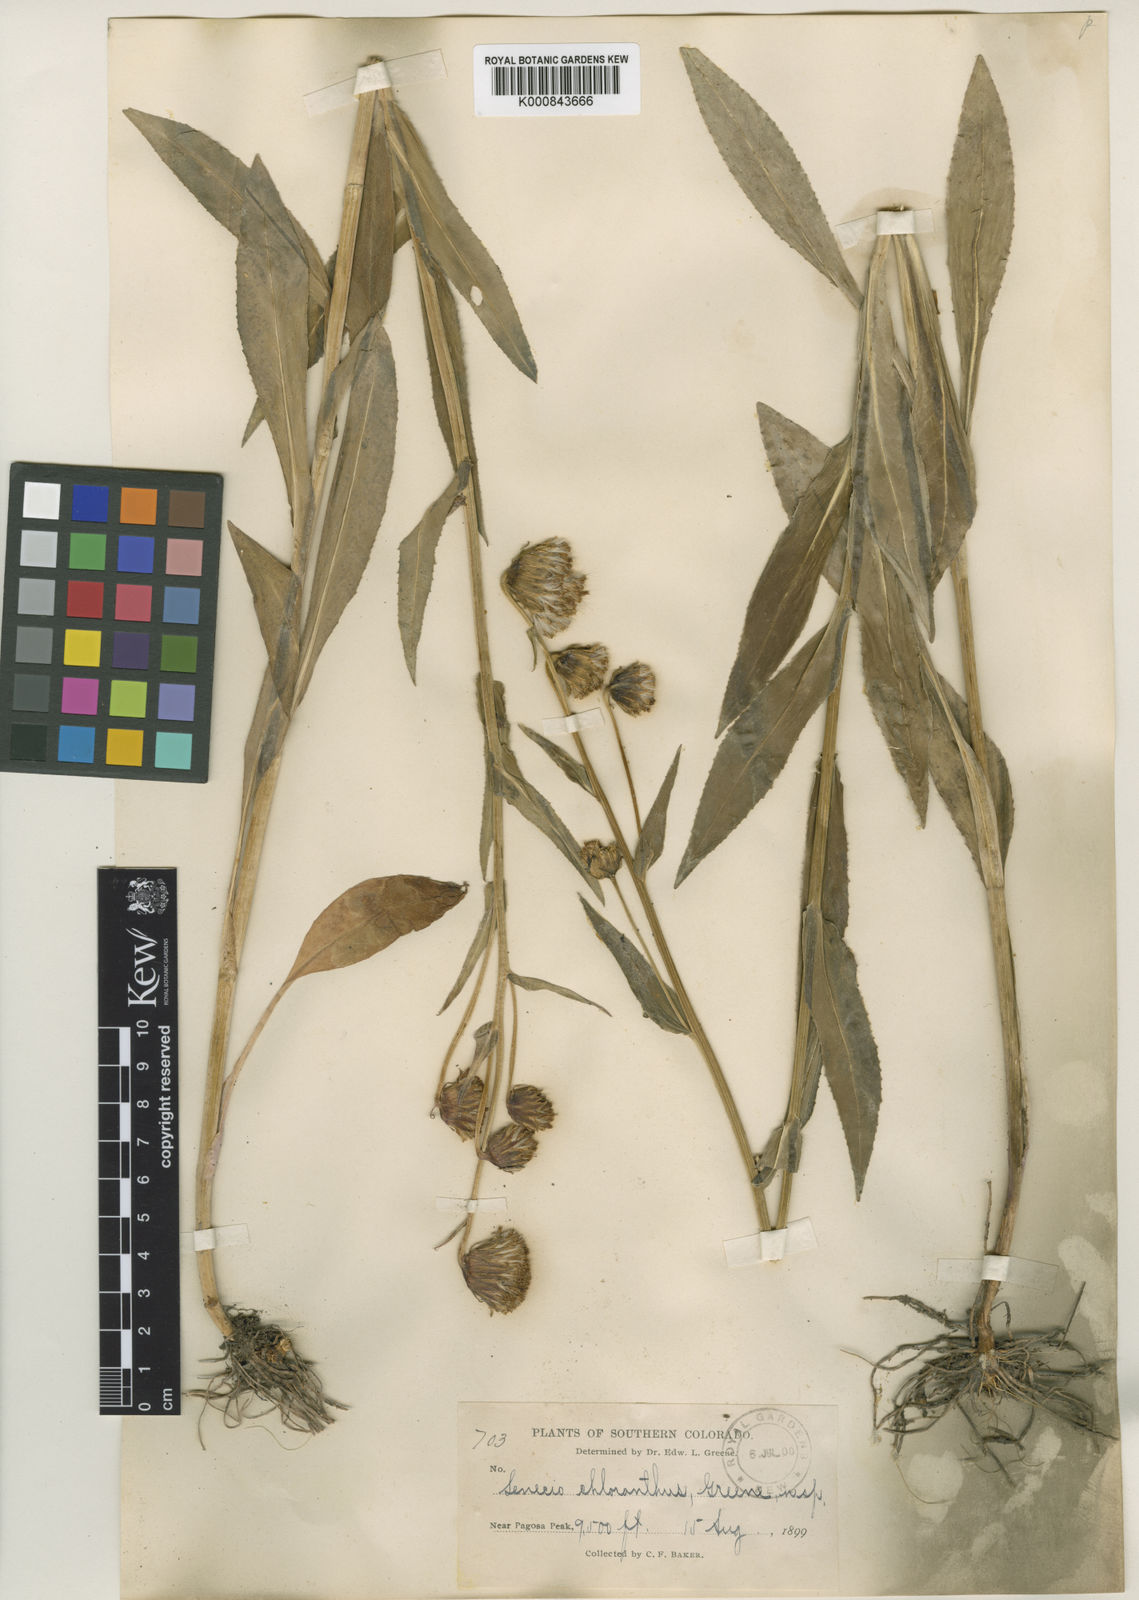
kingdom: Plantae
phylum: Tracheophyta
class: Magnoliopsida
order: Asterales
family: Asteraceae
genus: Senecio
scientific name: Senecio bigelovii
